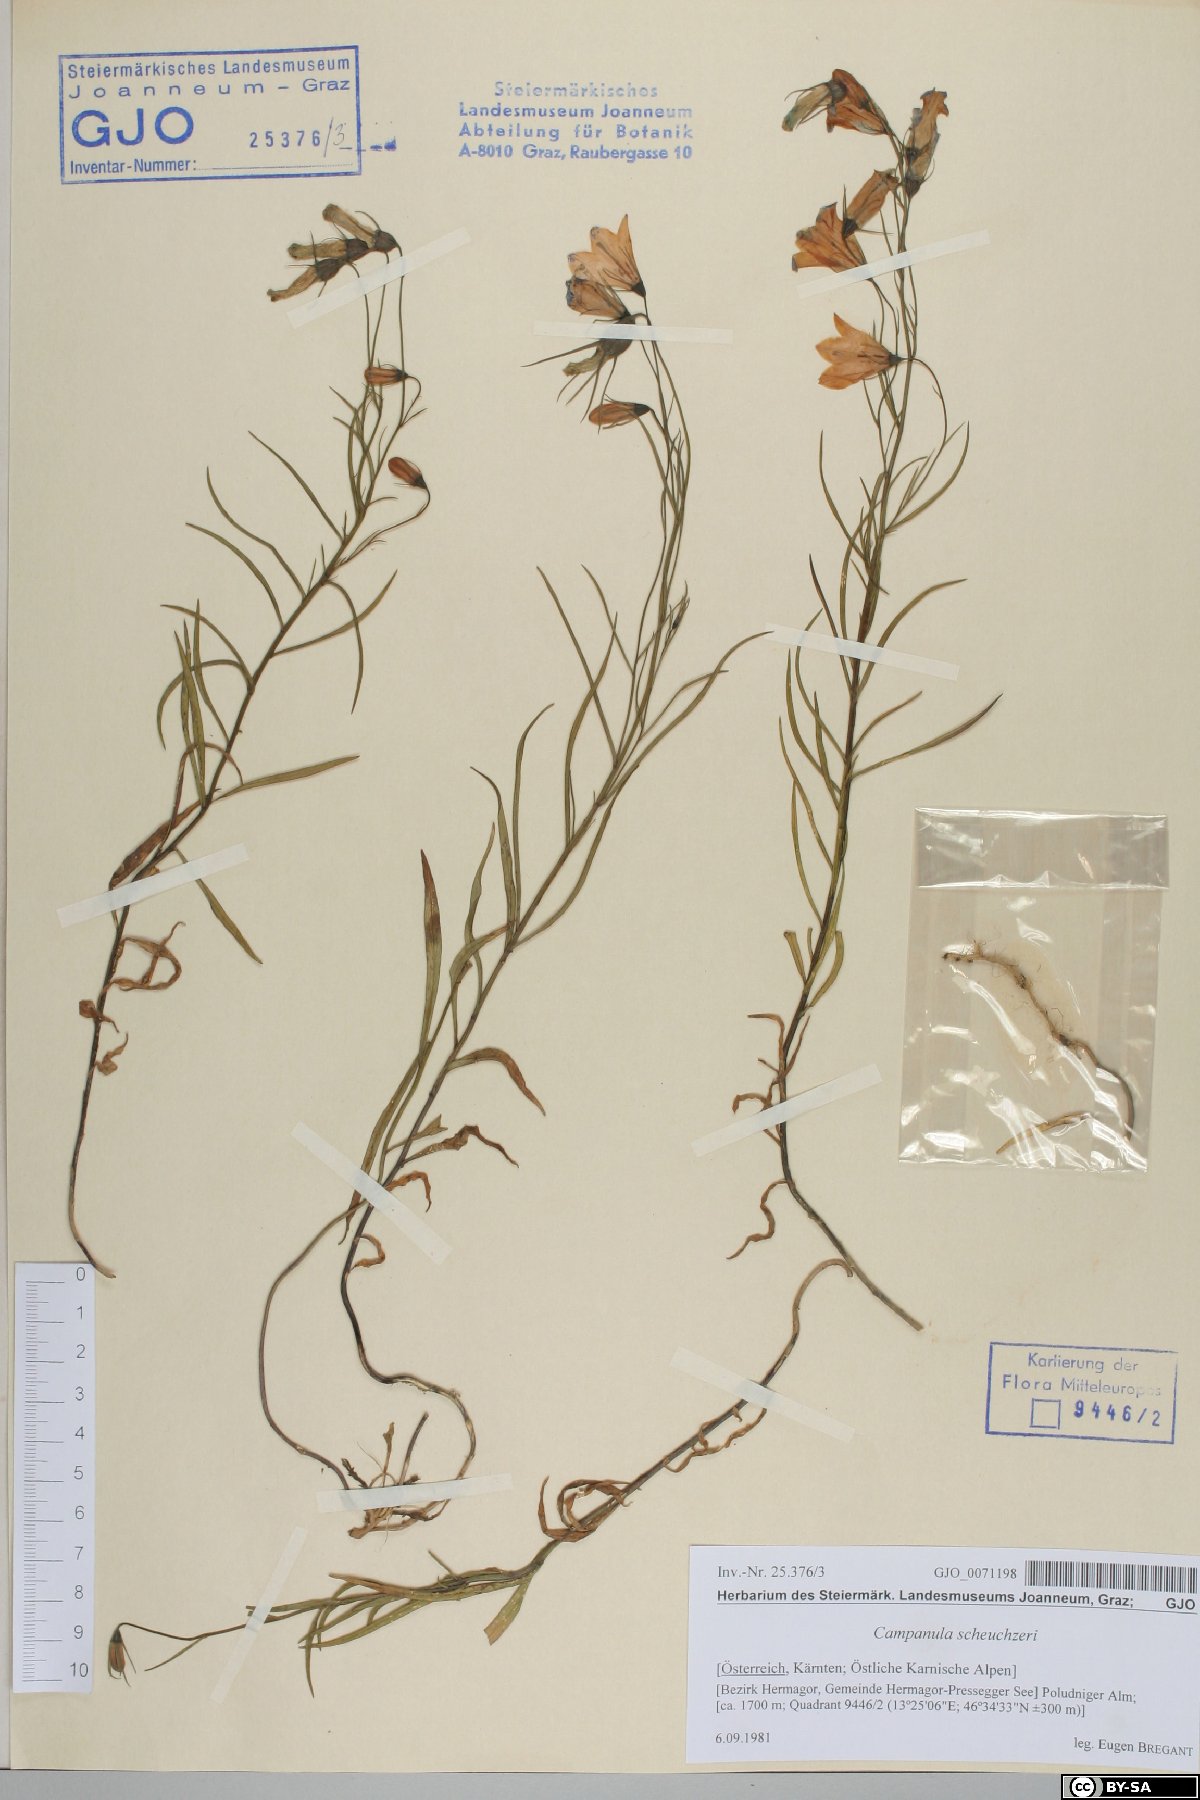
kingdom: Plantae
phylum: Tracheophyta
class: Magnoliopsida
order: Asterales
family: Campanulaceae
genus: Campanula
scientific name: Campanula scheuchzeri
